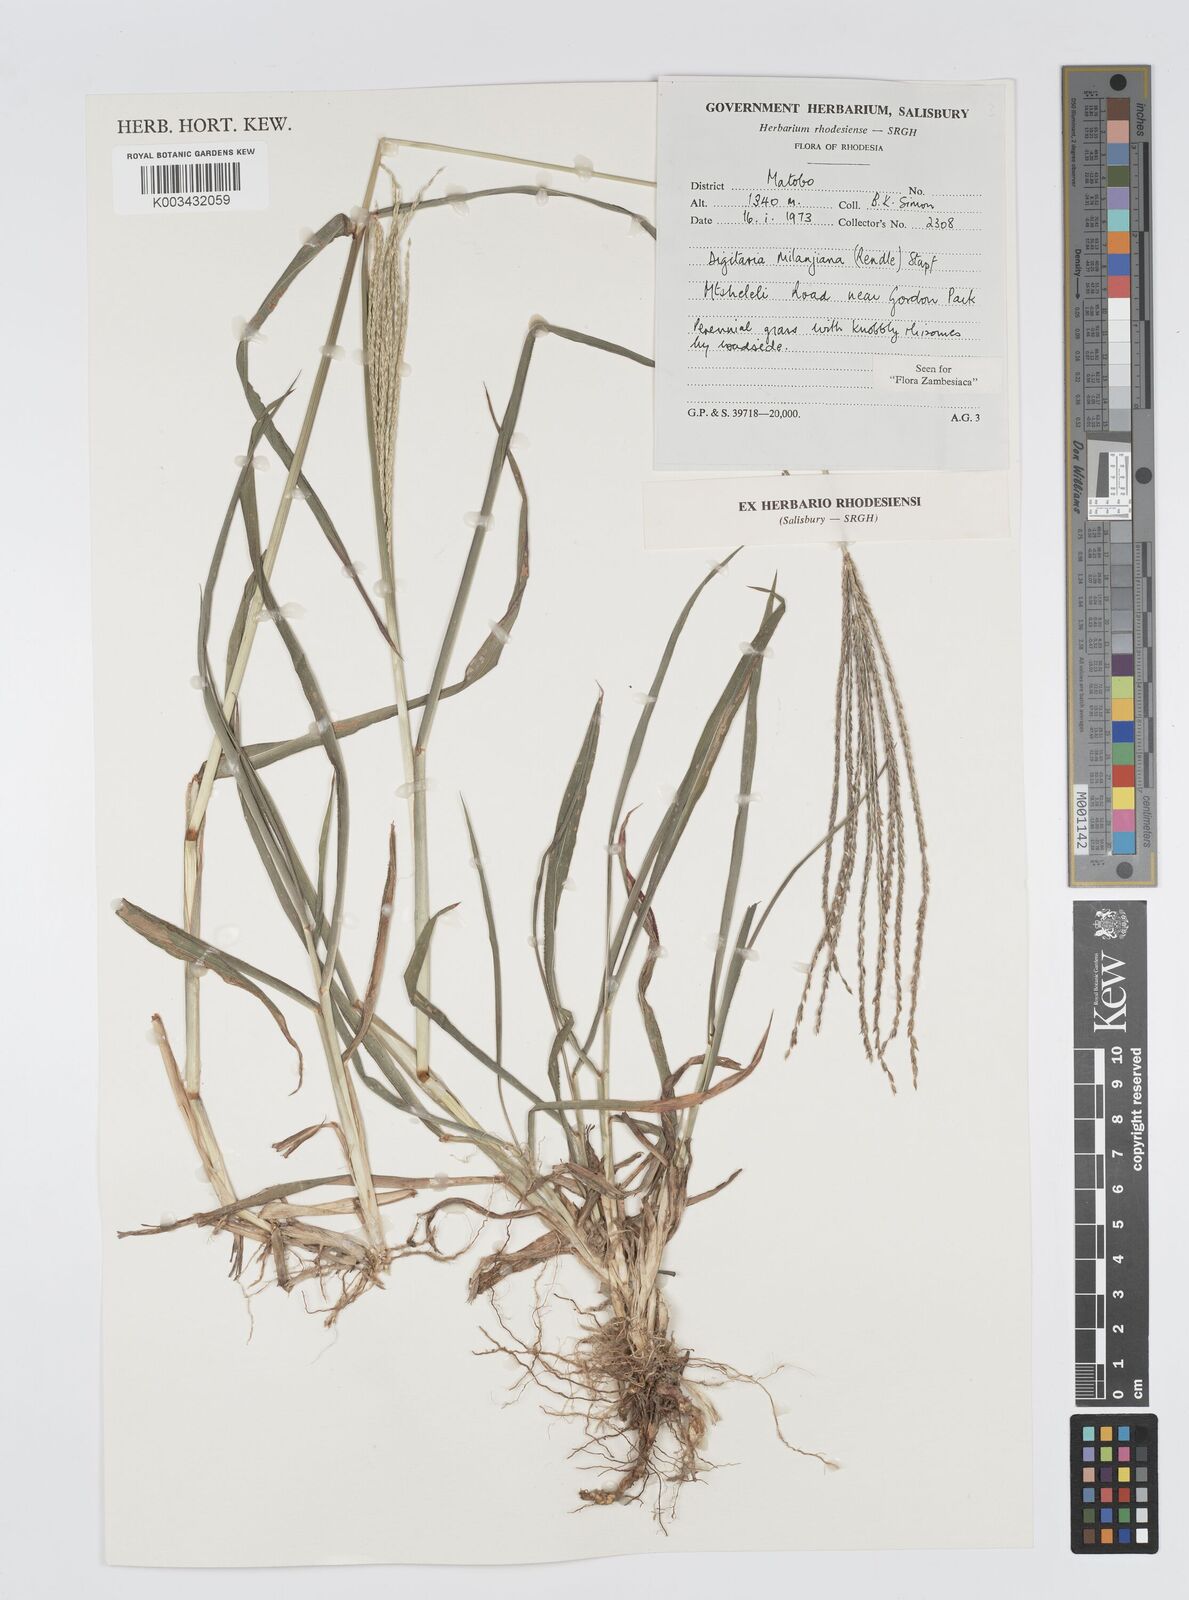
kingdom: Plantae
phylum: Tracheophyta
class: Liliopsida
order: Poales
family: Poaceae
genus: Digitaria
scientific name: Digitaria milanjiana
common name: Madagascar crabgrass
